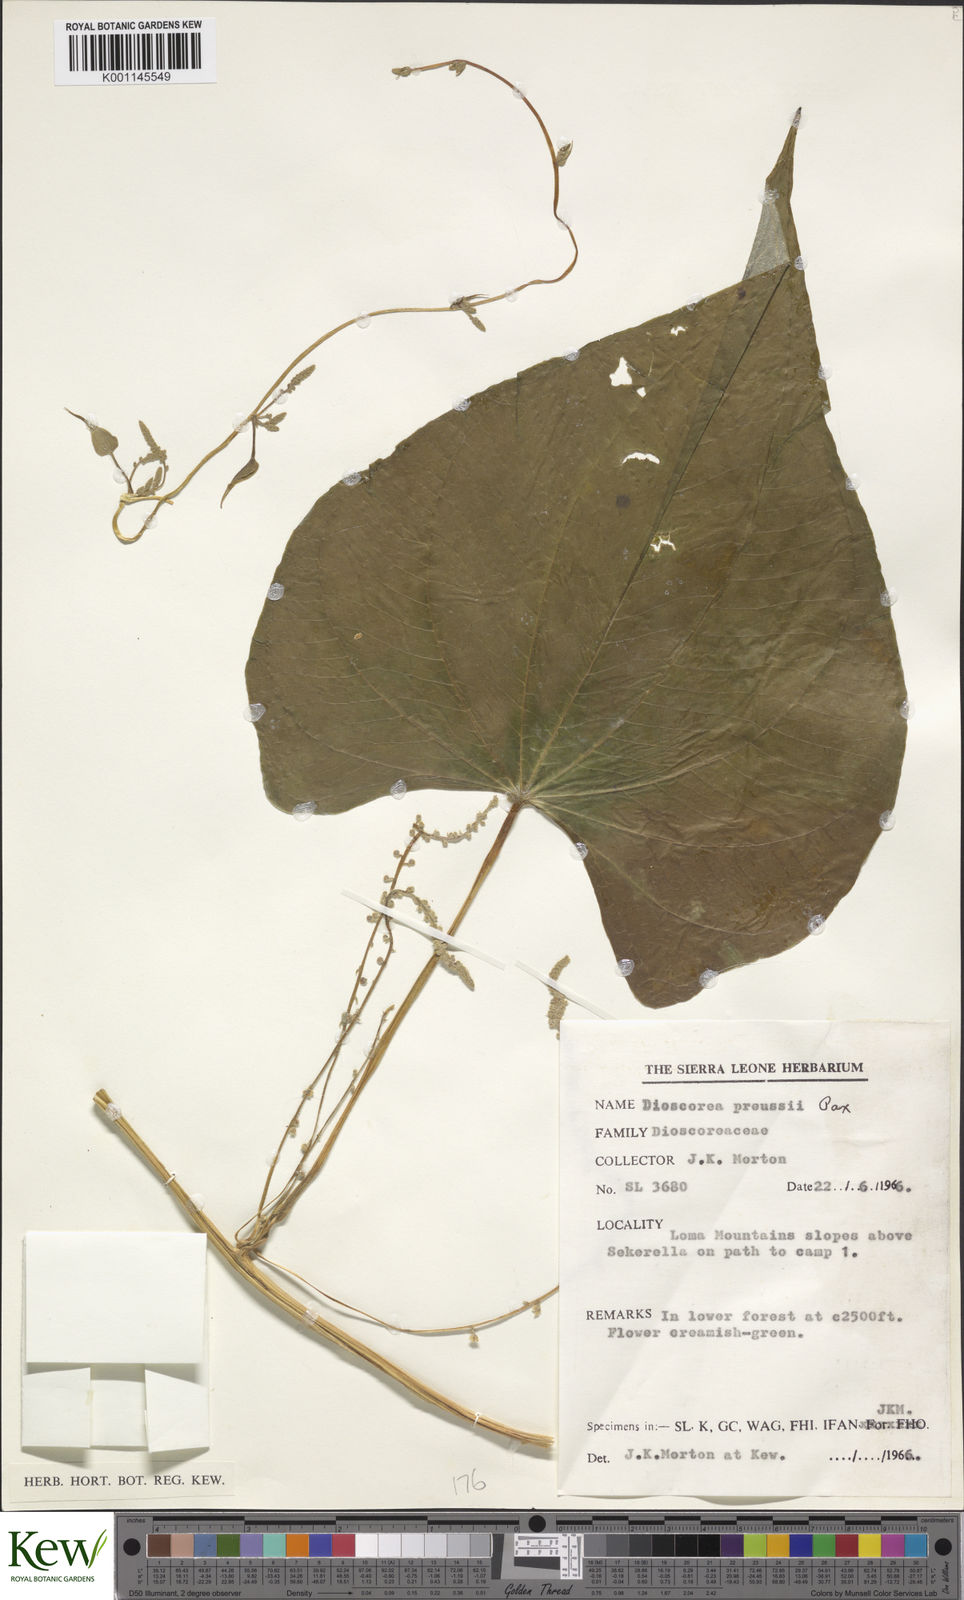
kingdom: Plantae
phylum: Tracheophyta
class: Liliopsida
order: Dioscoreales
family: Dioscoreaceae
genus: Dioscorea
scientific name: Dioscorea preussii
